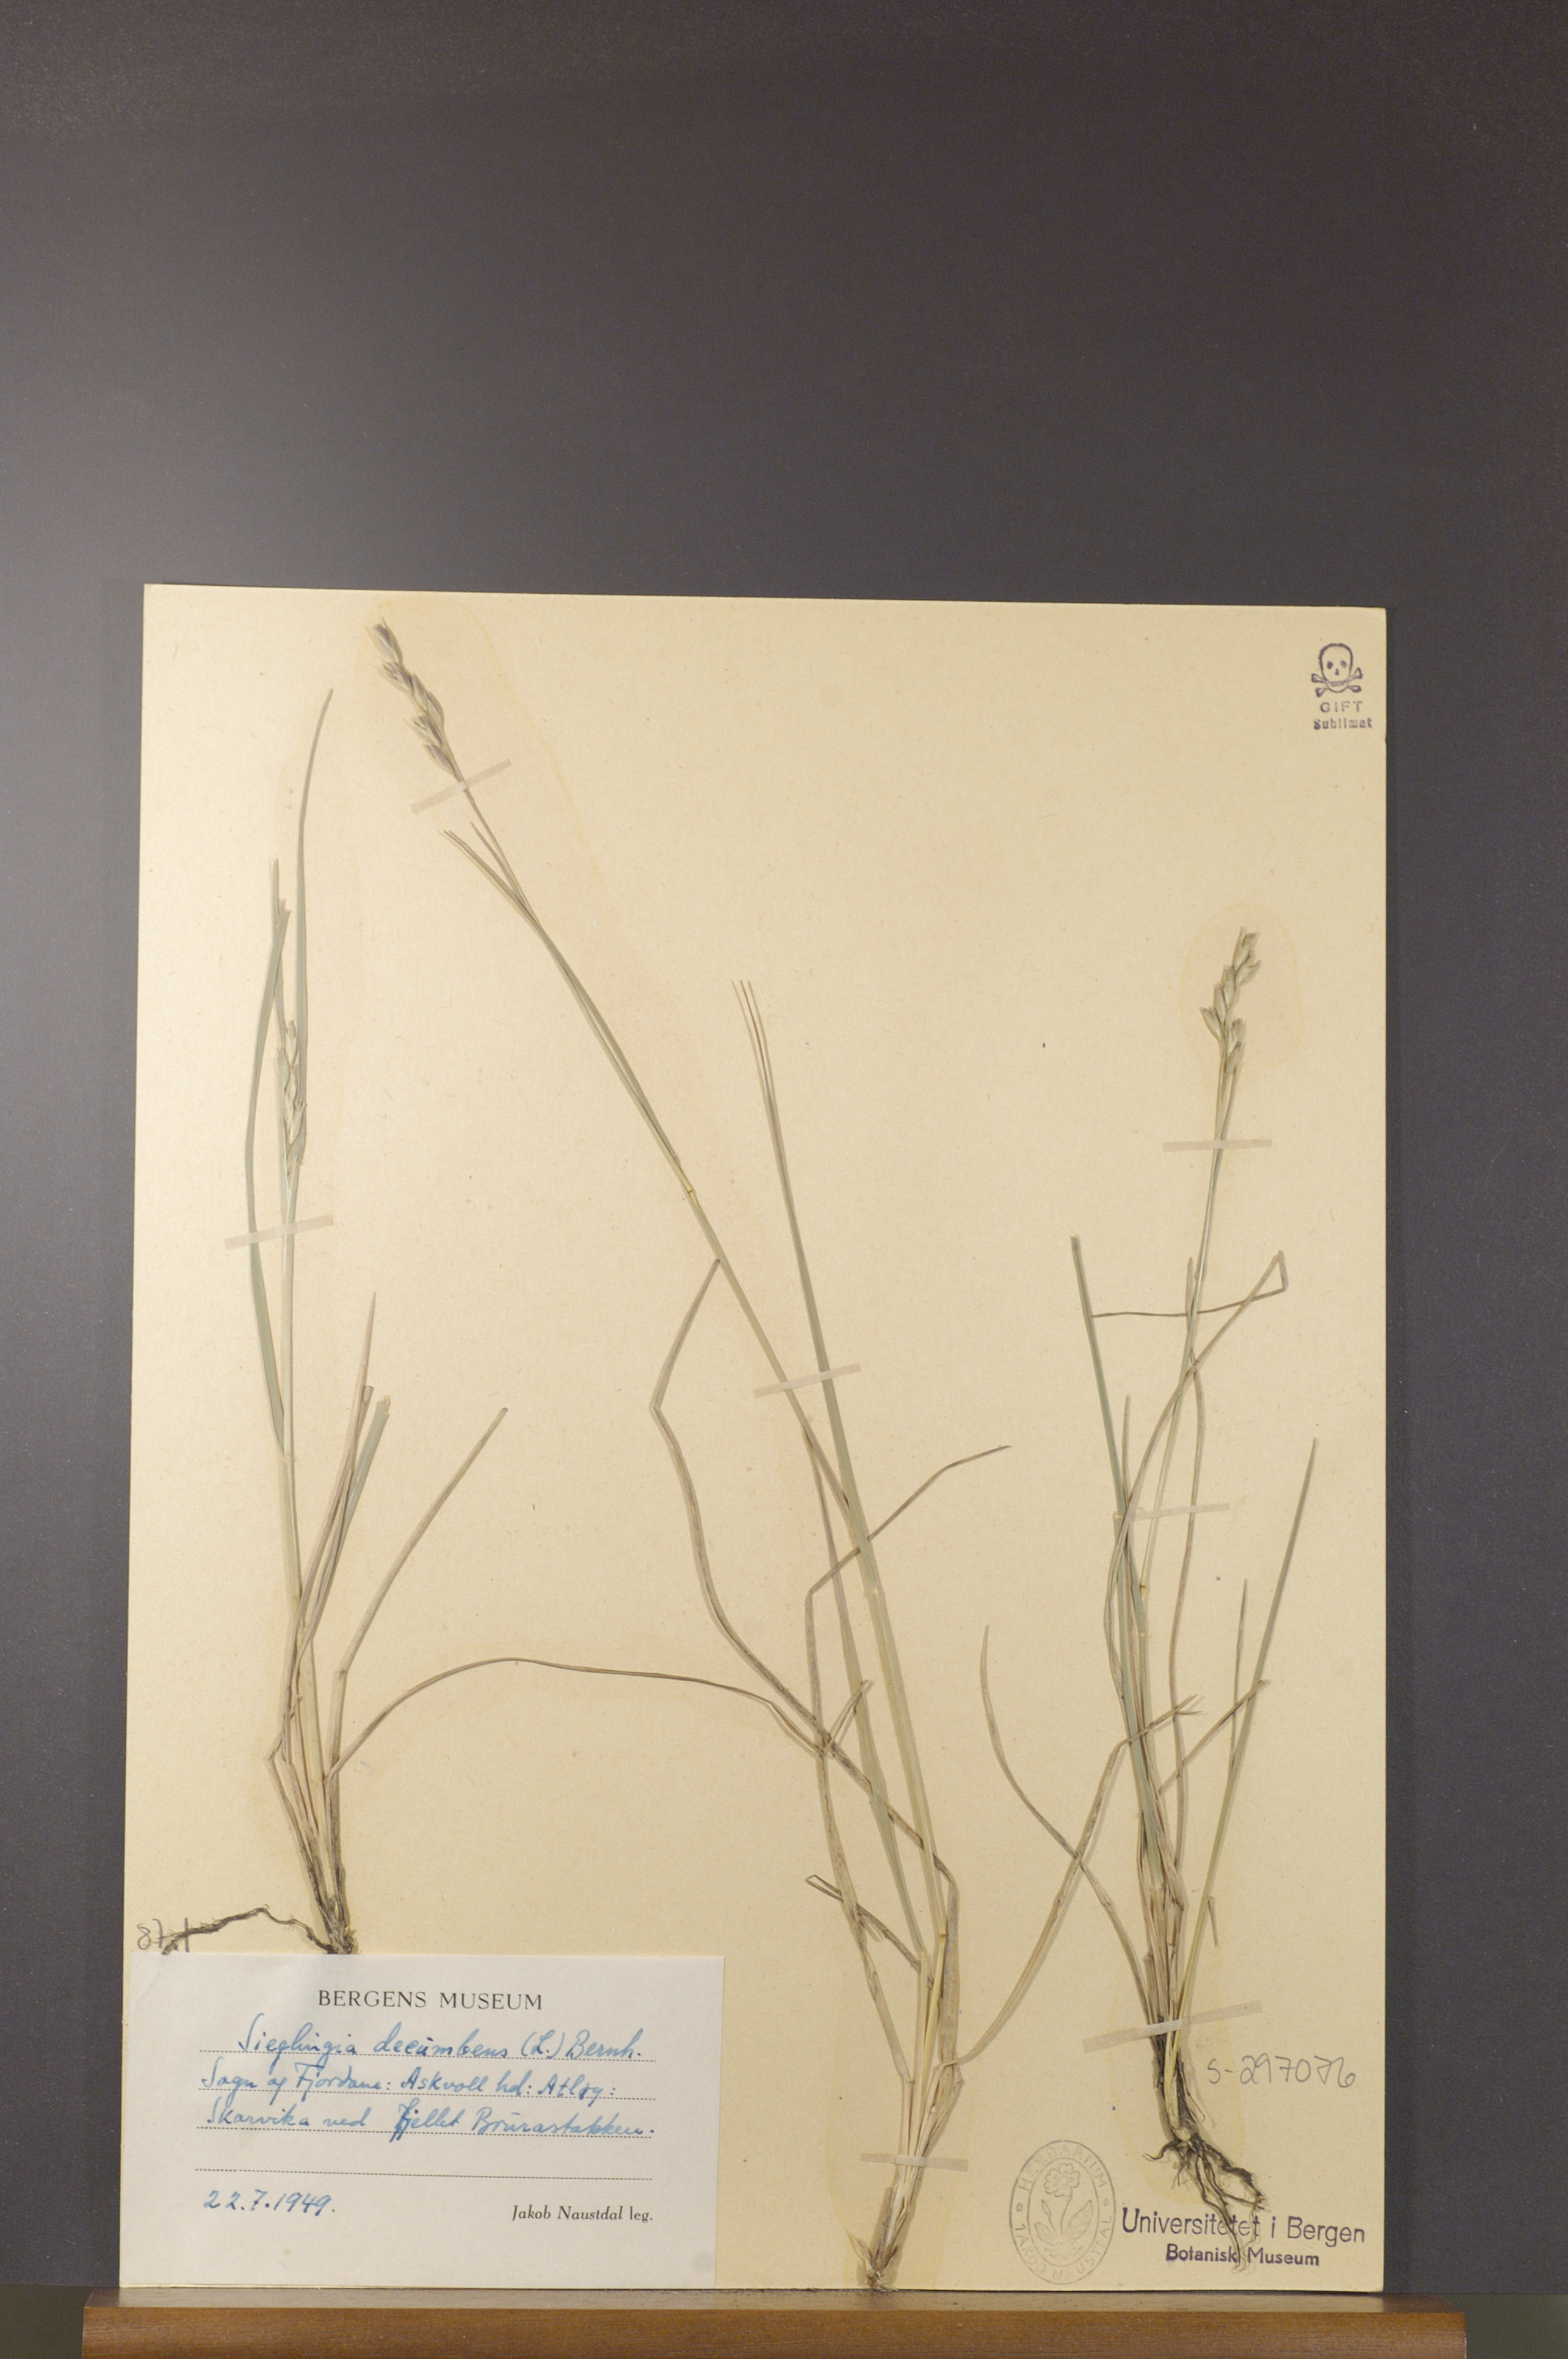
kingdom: Plantae
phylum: Tracheophyta
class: Liliopsida
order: Poales
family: Poaceae
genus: Danthonia
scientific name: Danthonia decumbens
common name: Common heathgrass
